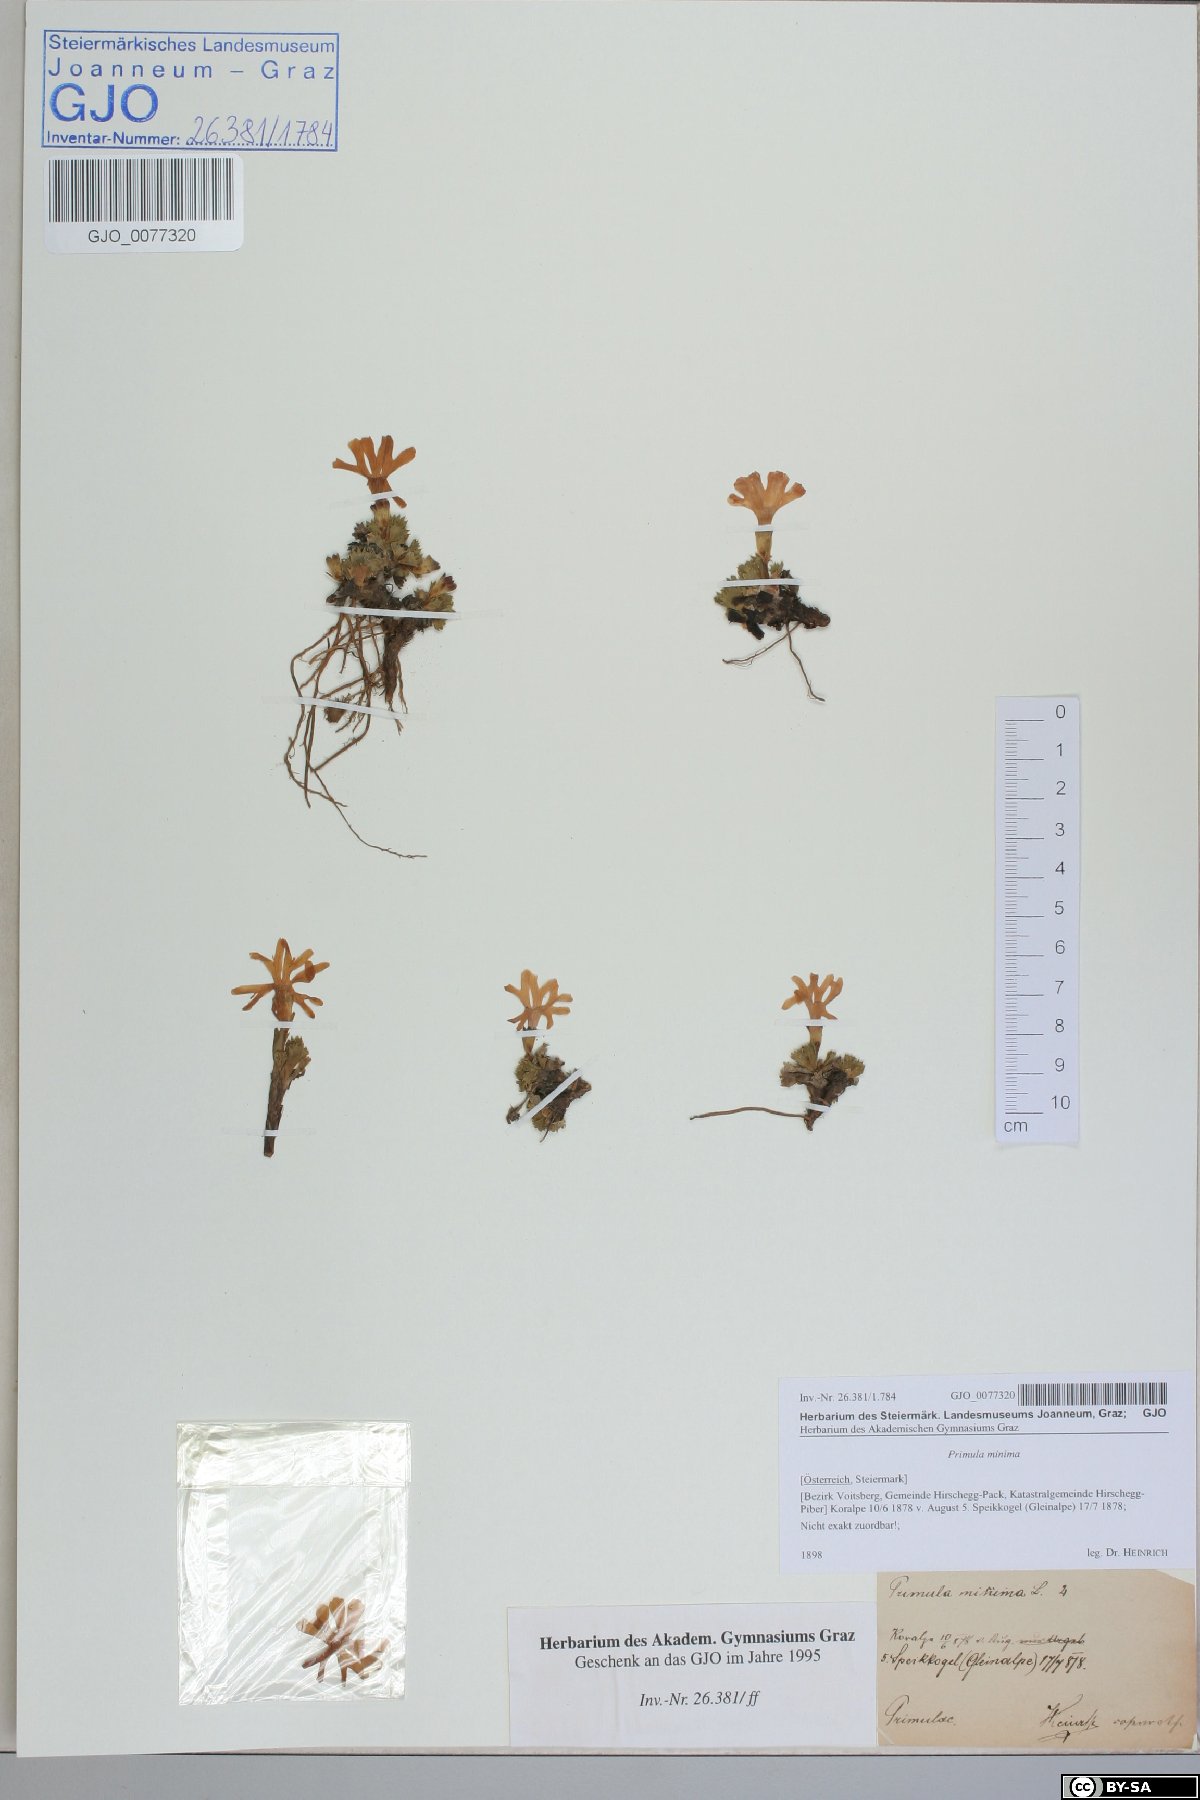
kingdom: Plantae
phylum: Tracheophyta
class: Magnoliopsida
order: Ericales
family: Primulaceae
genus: Primula
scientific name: Primula minima
